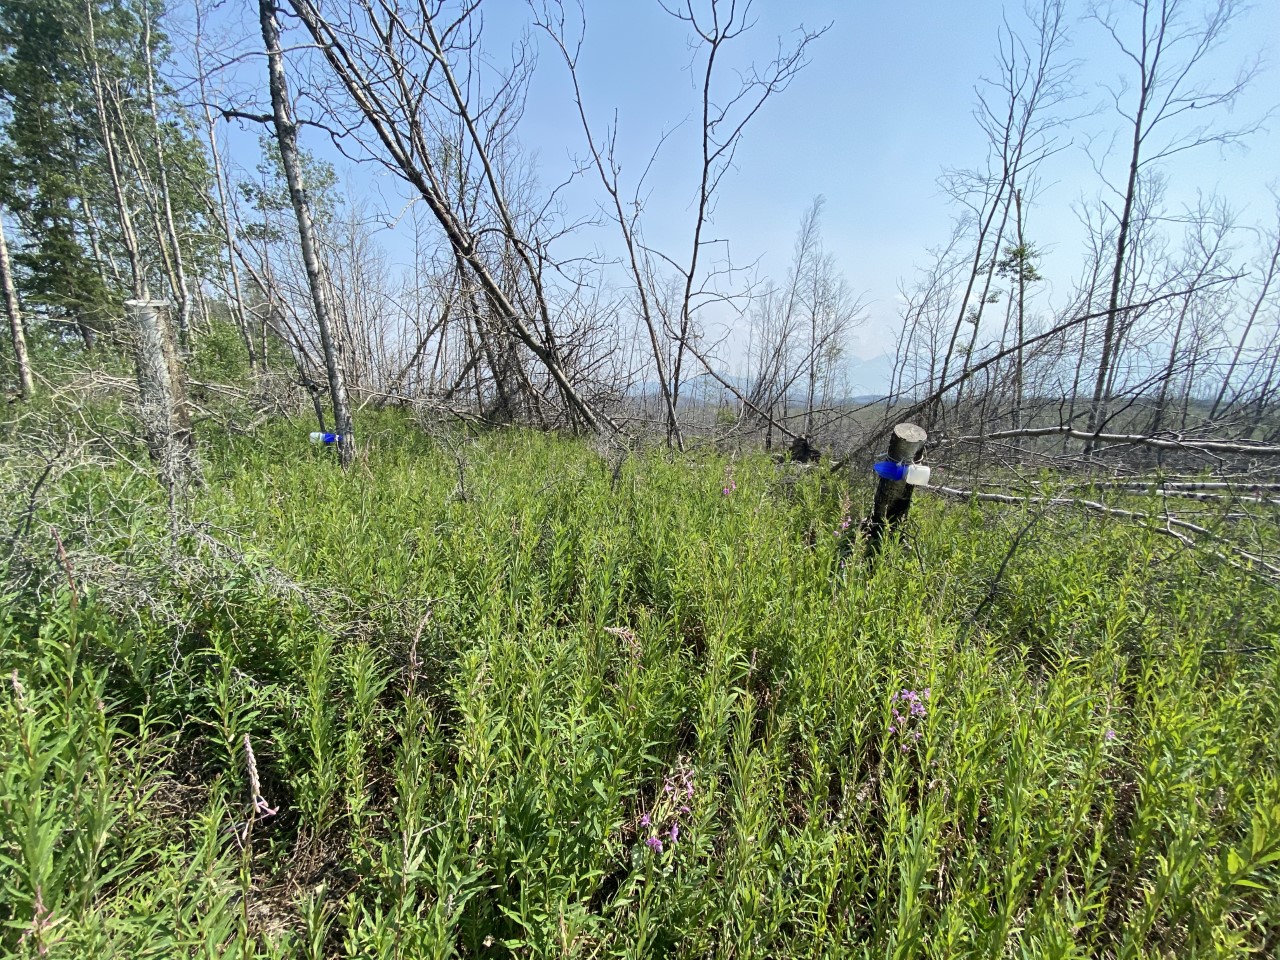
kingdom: Animalia
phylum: Arthropoda
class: Insecta
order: Hemiptera
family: Miridae
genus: Prepops
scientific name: Prepops
